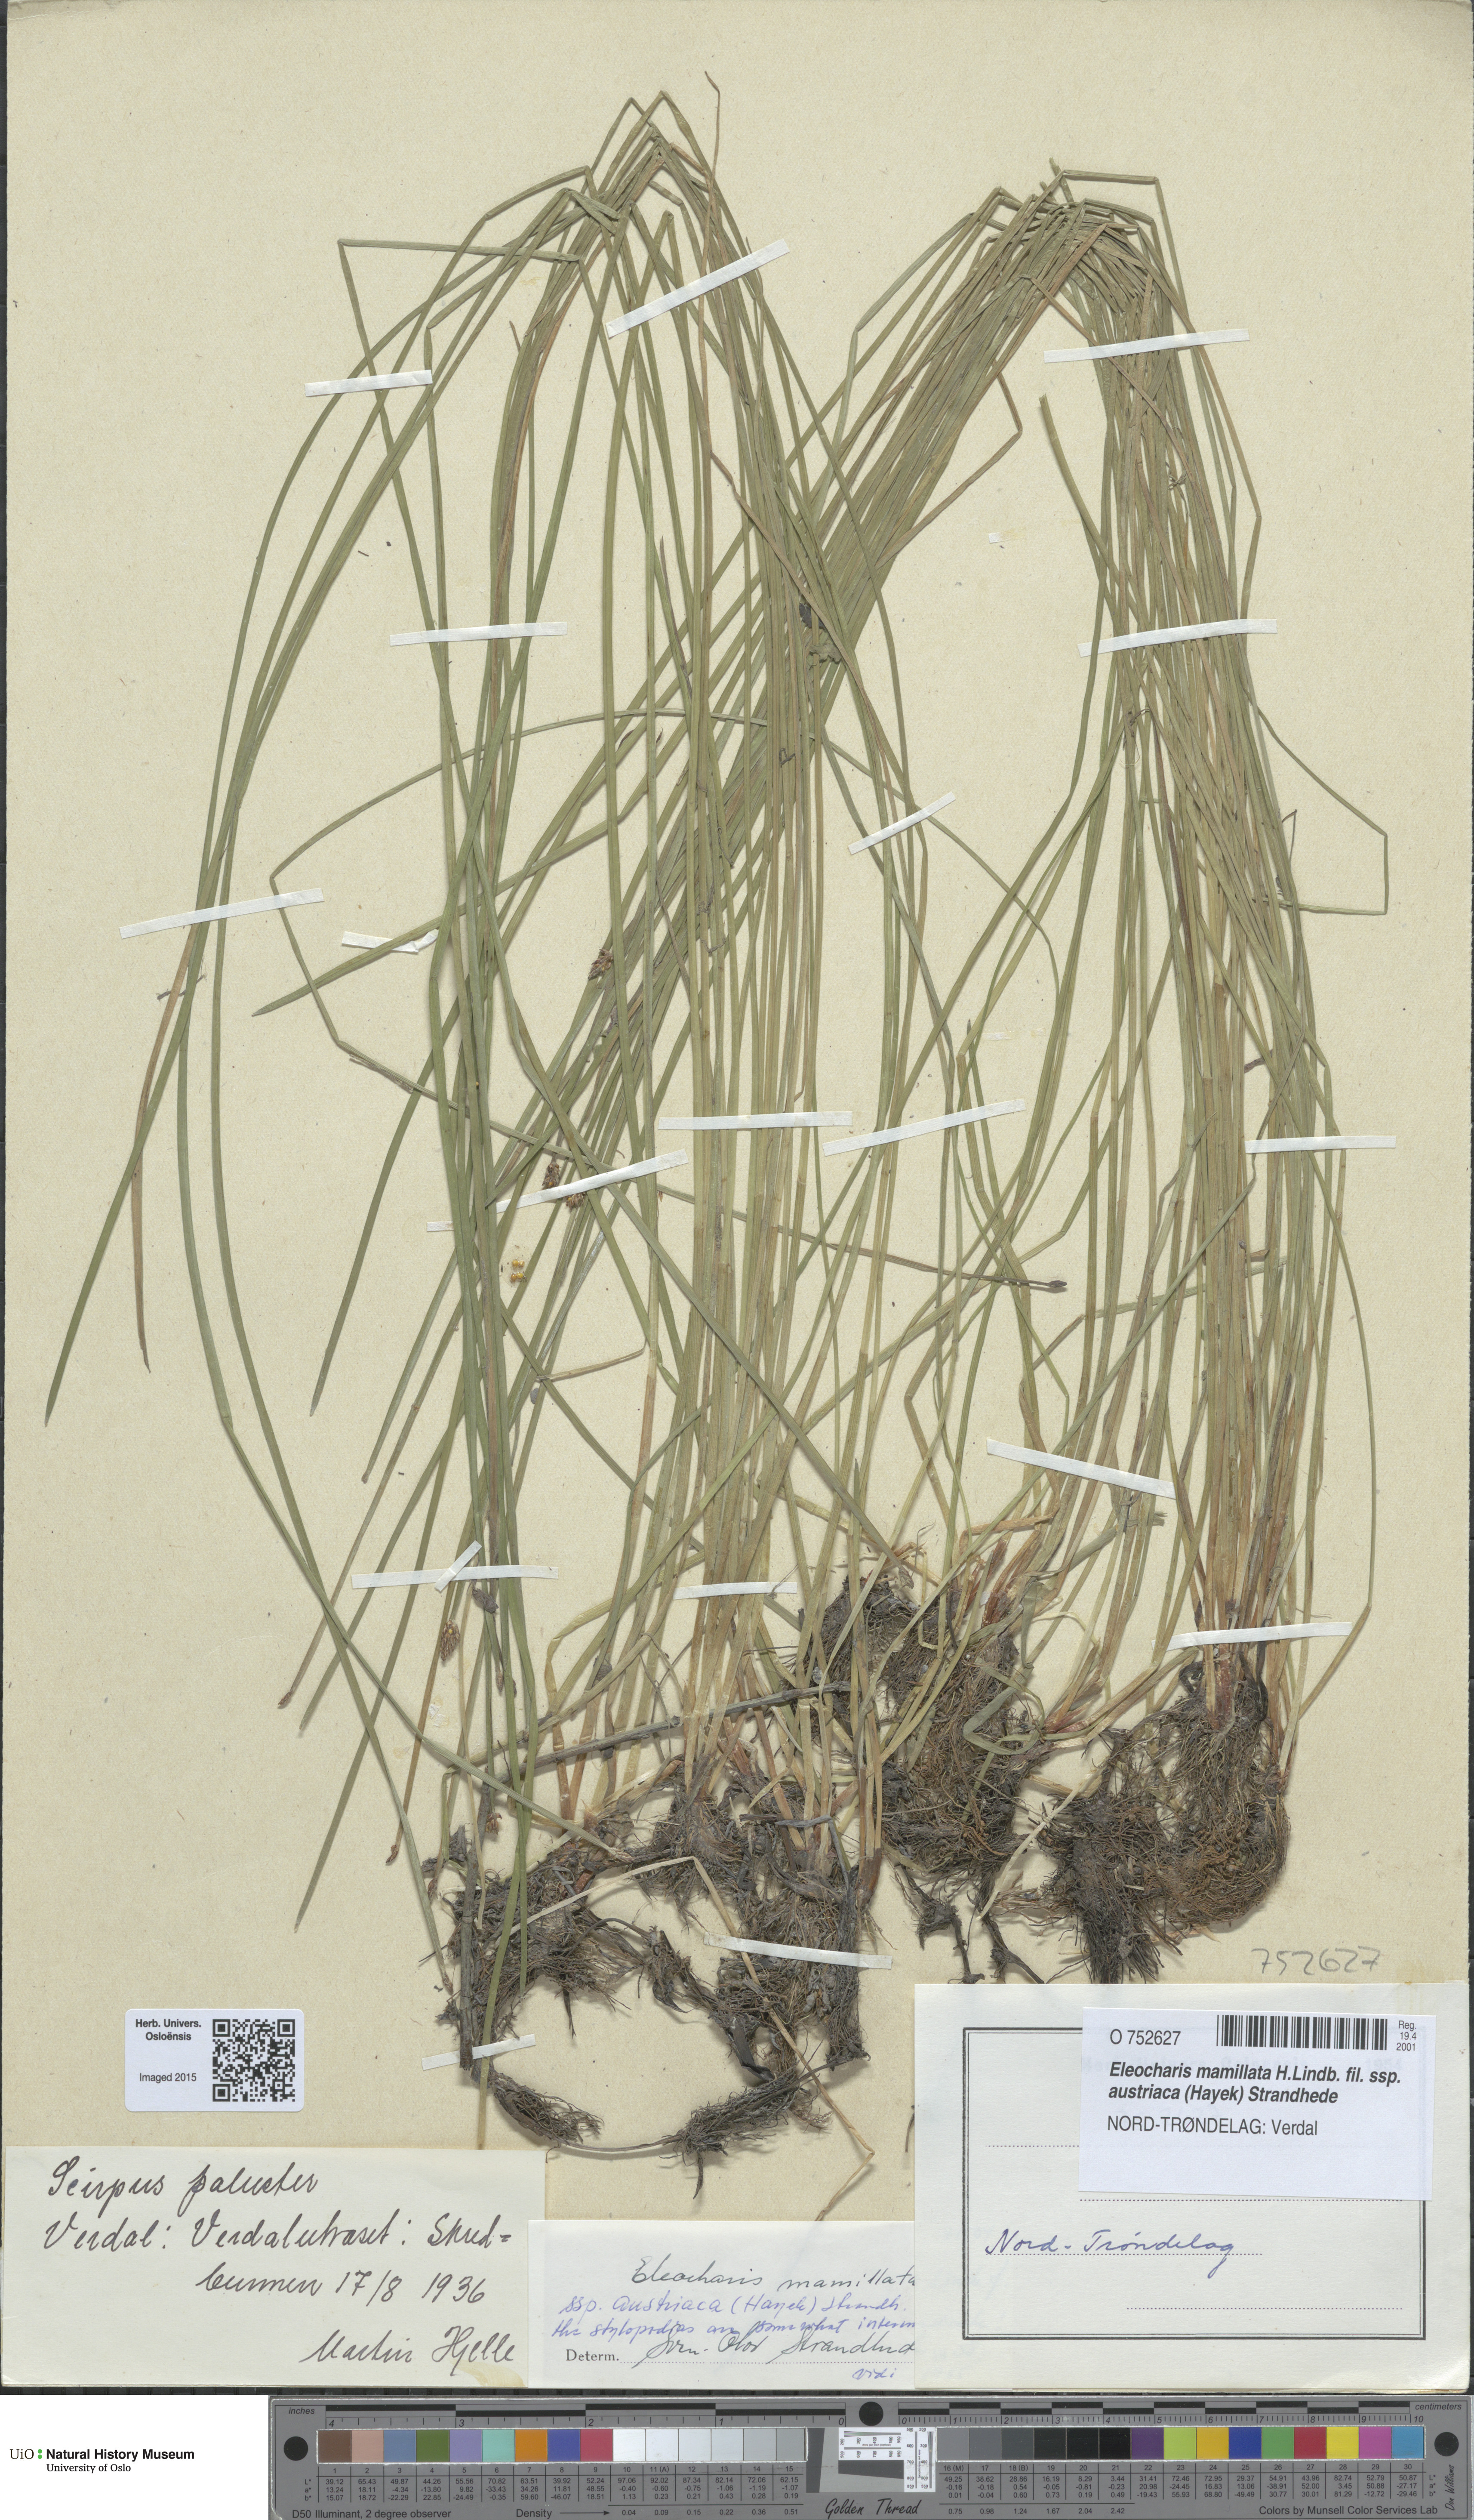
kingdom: Plantae
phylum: Tracheophyta
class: Liliopsida
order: Poales
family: Cyperaceae
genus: Eleocharis
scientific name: Eleocharis mamillata
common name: Northern spike-rush
